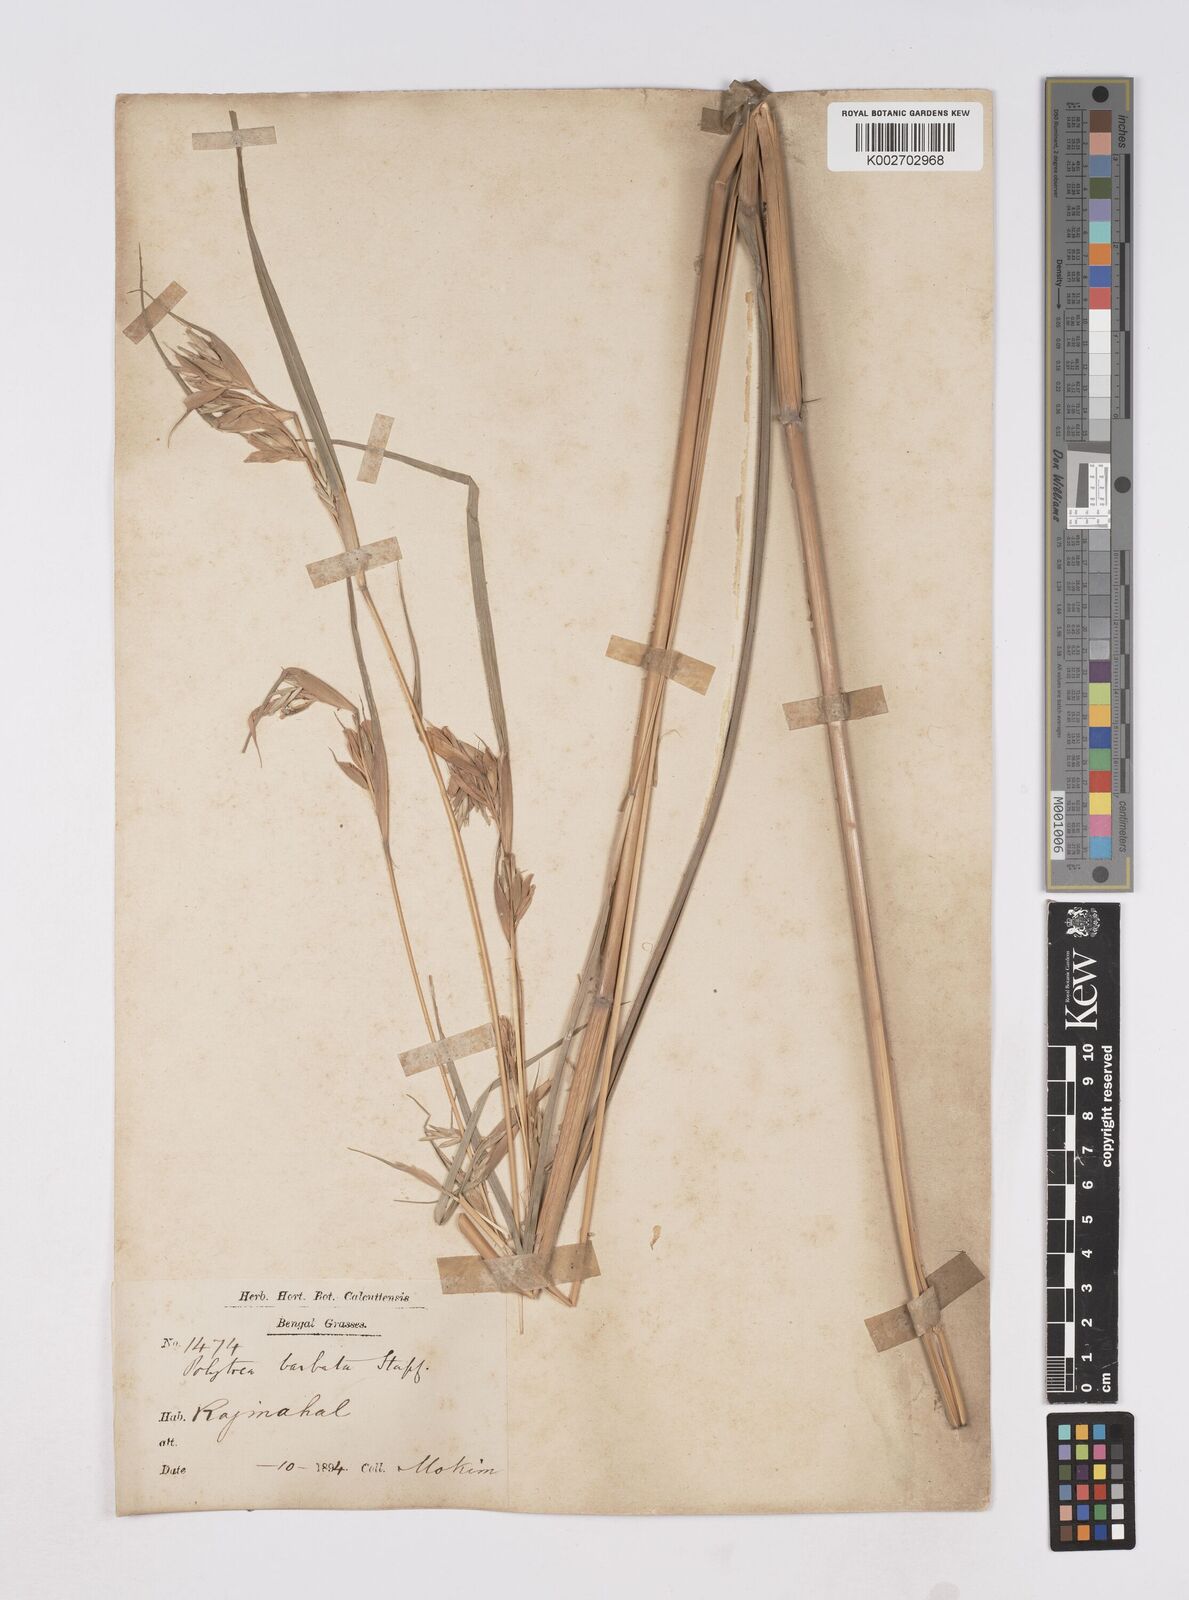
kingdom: Plantae
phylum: Tracheophyta
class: Liliopsida
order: Poales
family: Poaceae
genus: Polytoca
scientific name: Polytoca gigantea
